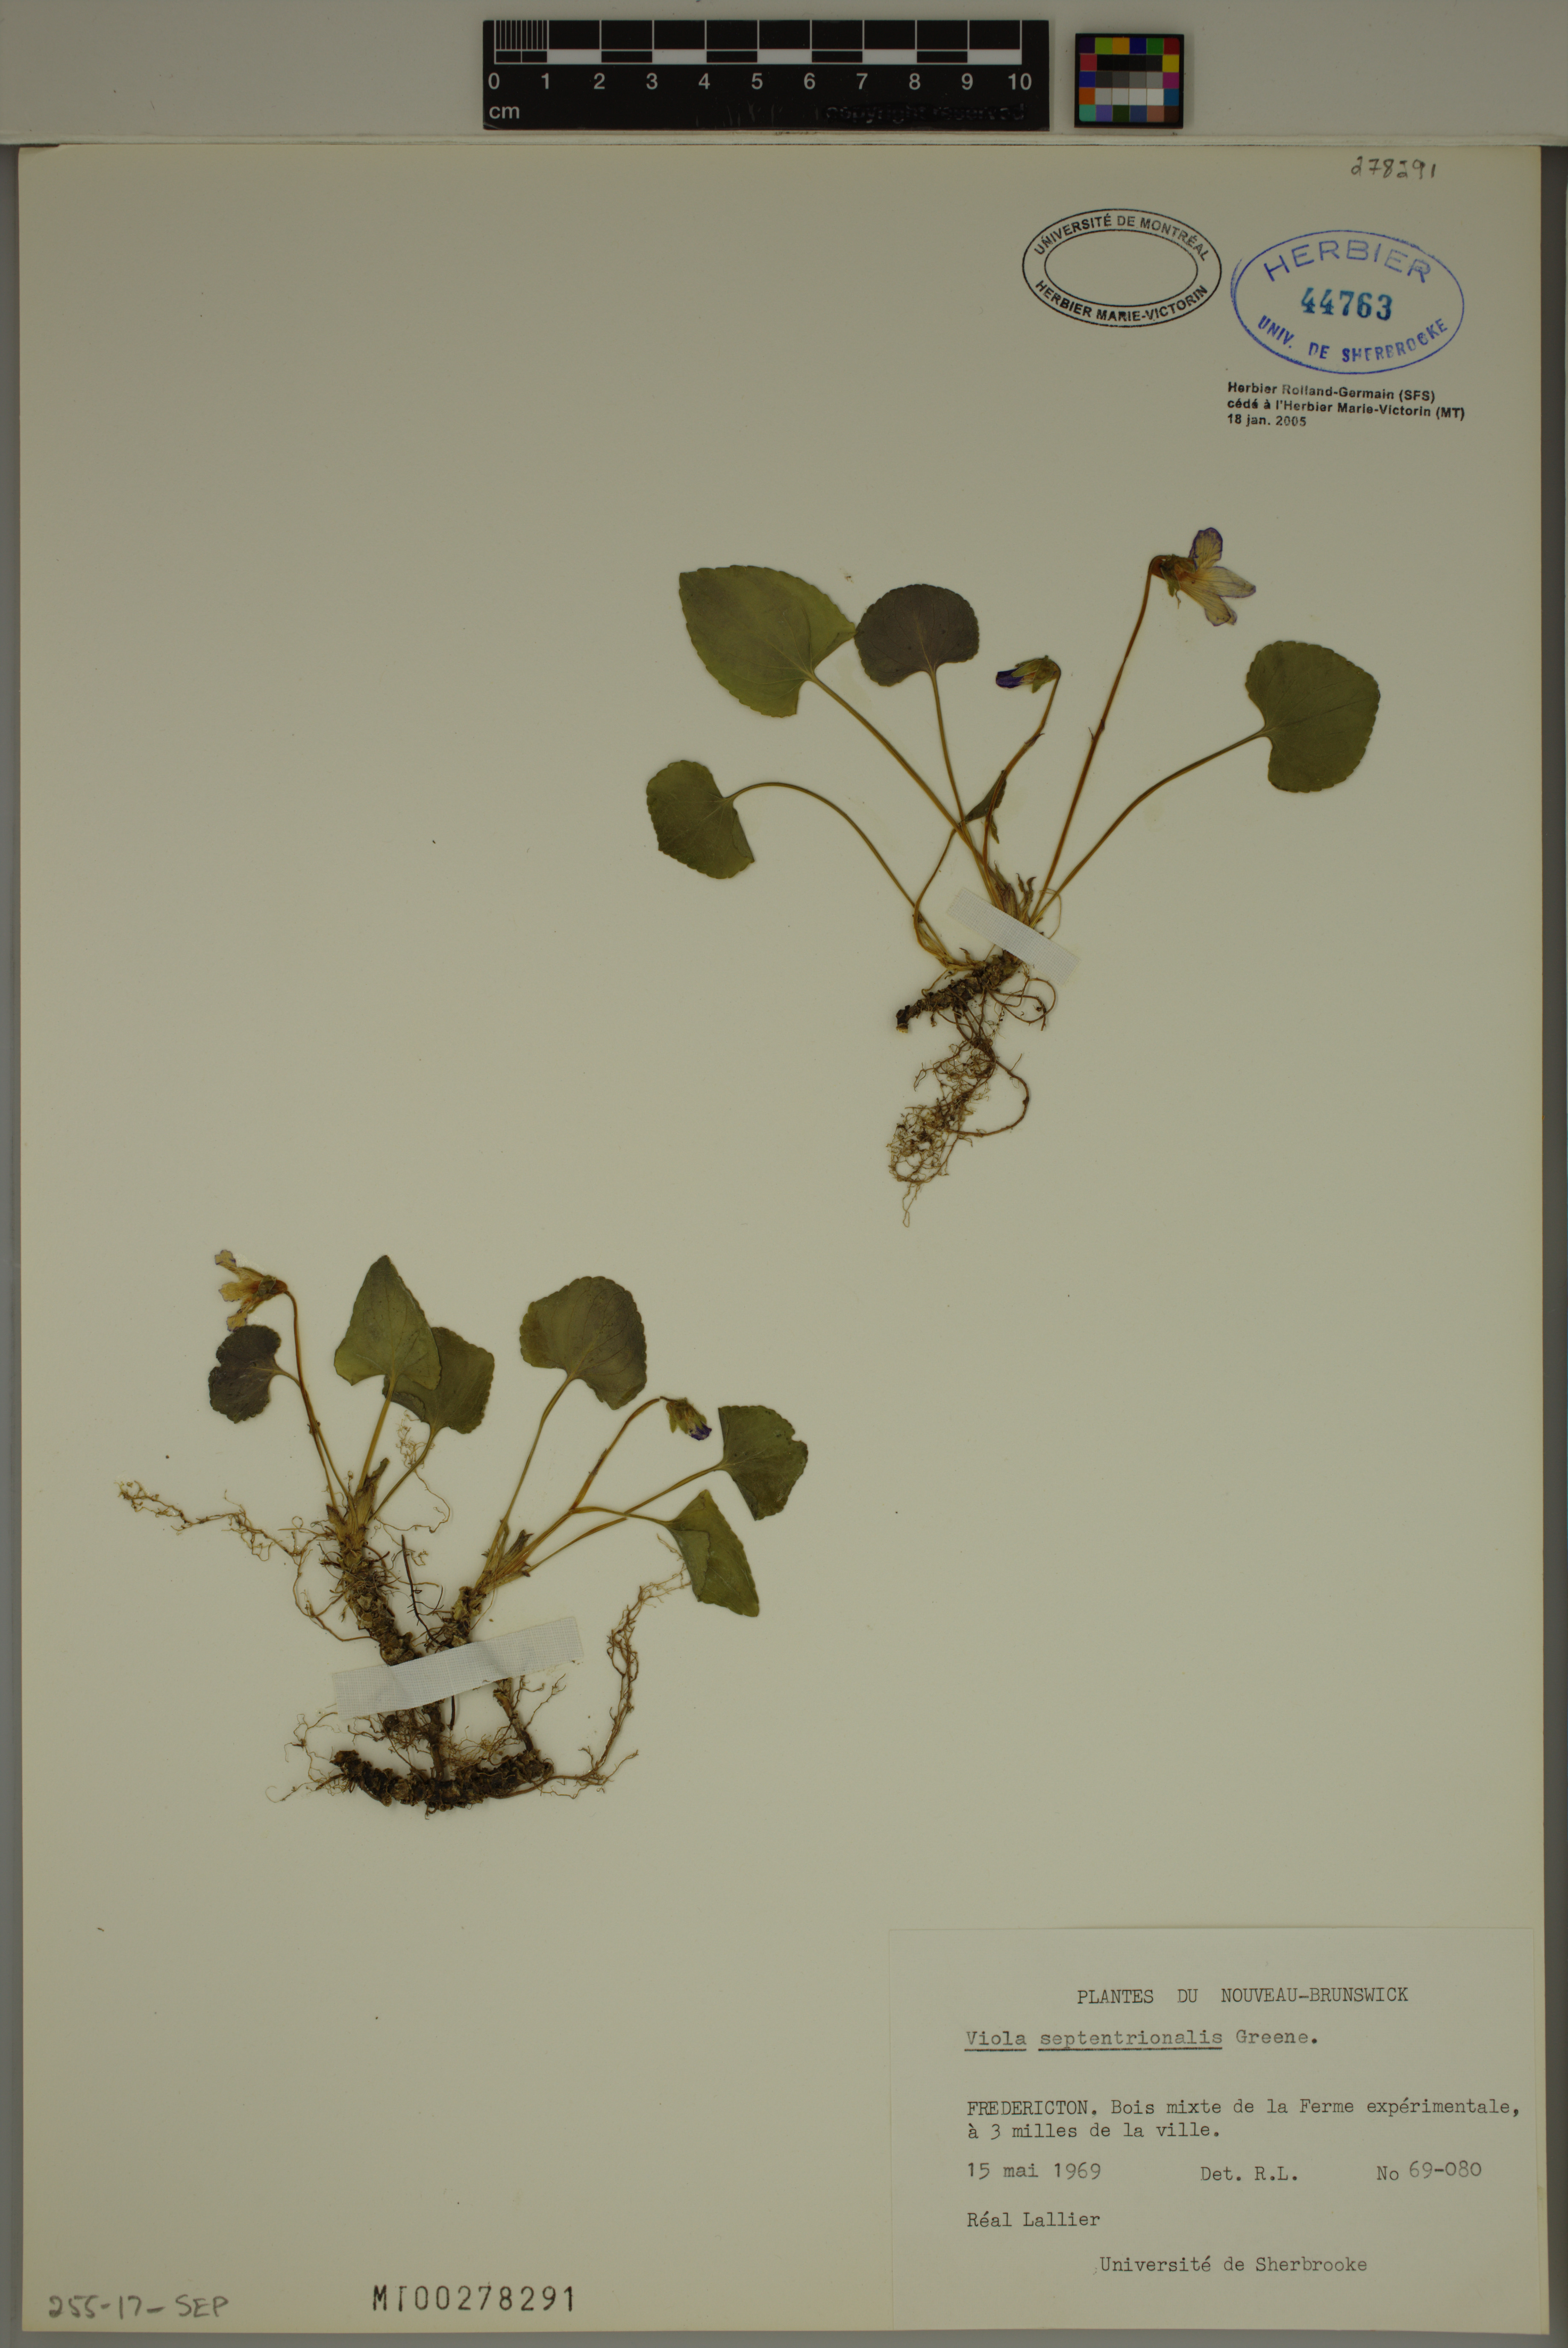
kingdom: Plantae
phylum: Tracheophyta
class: Magnoliopsida
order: Malpighiales
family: Violaceae
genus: Viola
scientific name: Viola septentrionalis
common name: Northern woodland violet
